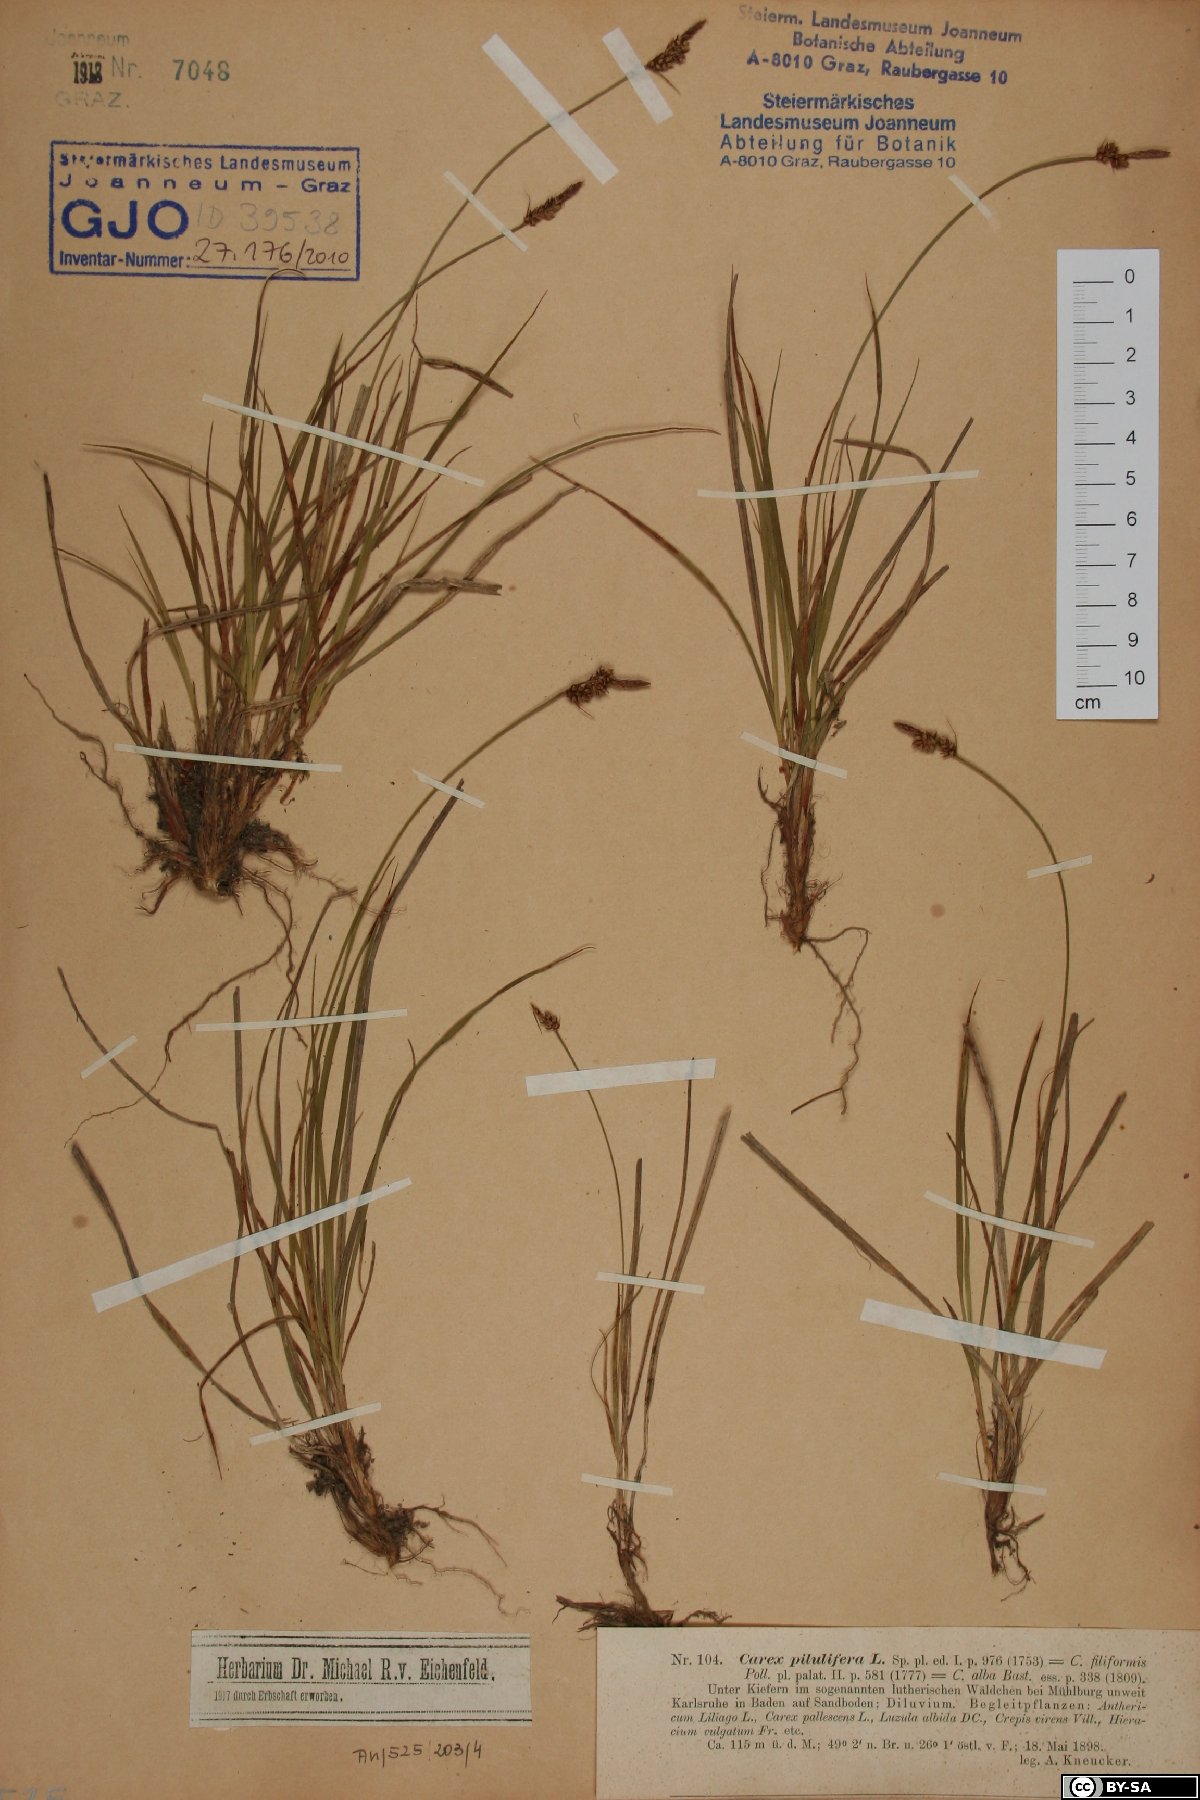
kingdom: Plantae
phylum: Tracheophyta
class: Liliopsida
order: Poales
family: Cyperaceae
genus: Carex
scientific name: Carex pilulifera
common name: Pill sedge
